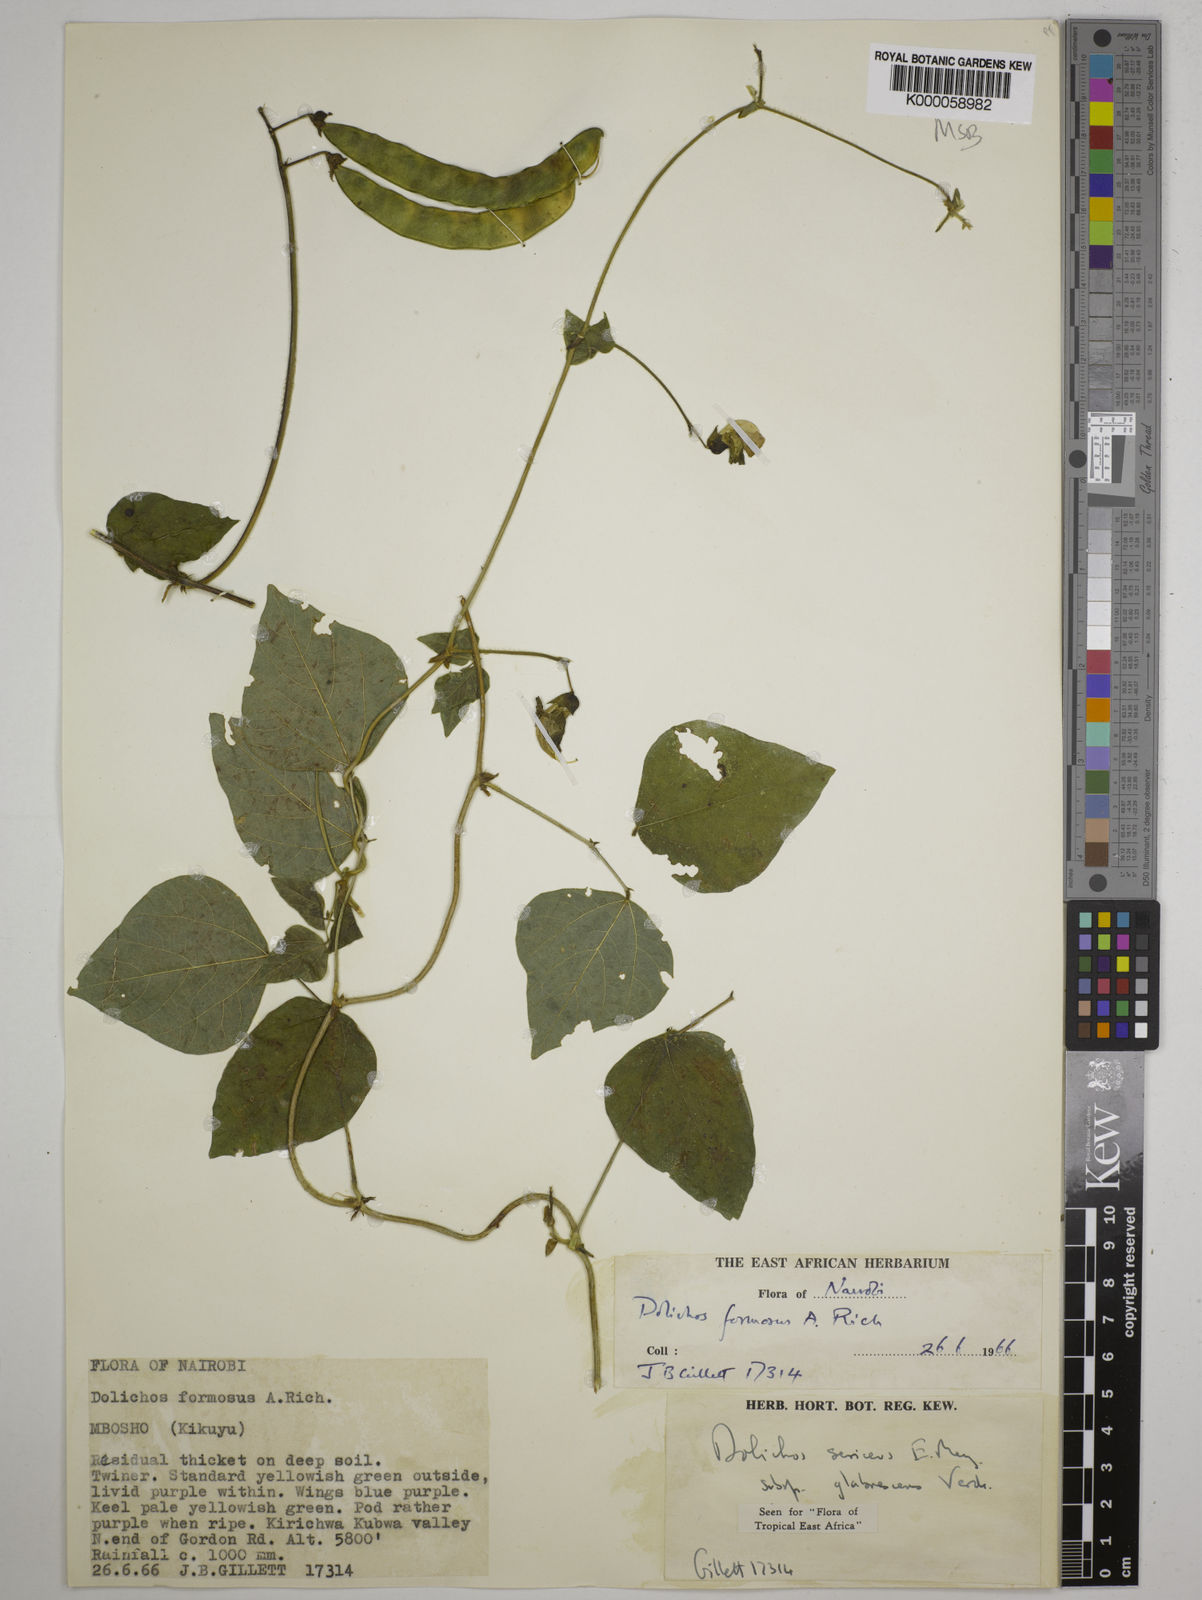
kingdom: Plantae
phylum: Tracheophyta
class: Magnoliopsida
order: Fabales
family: Fabaceae
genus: Dolichos
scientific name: Dolichos sericeus
